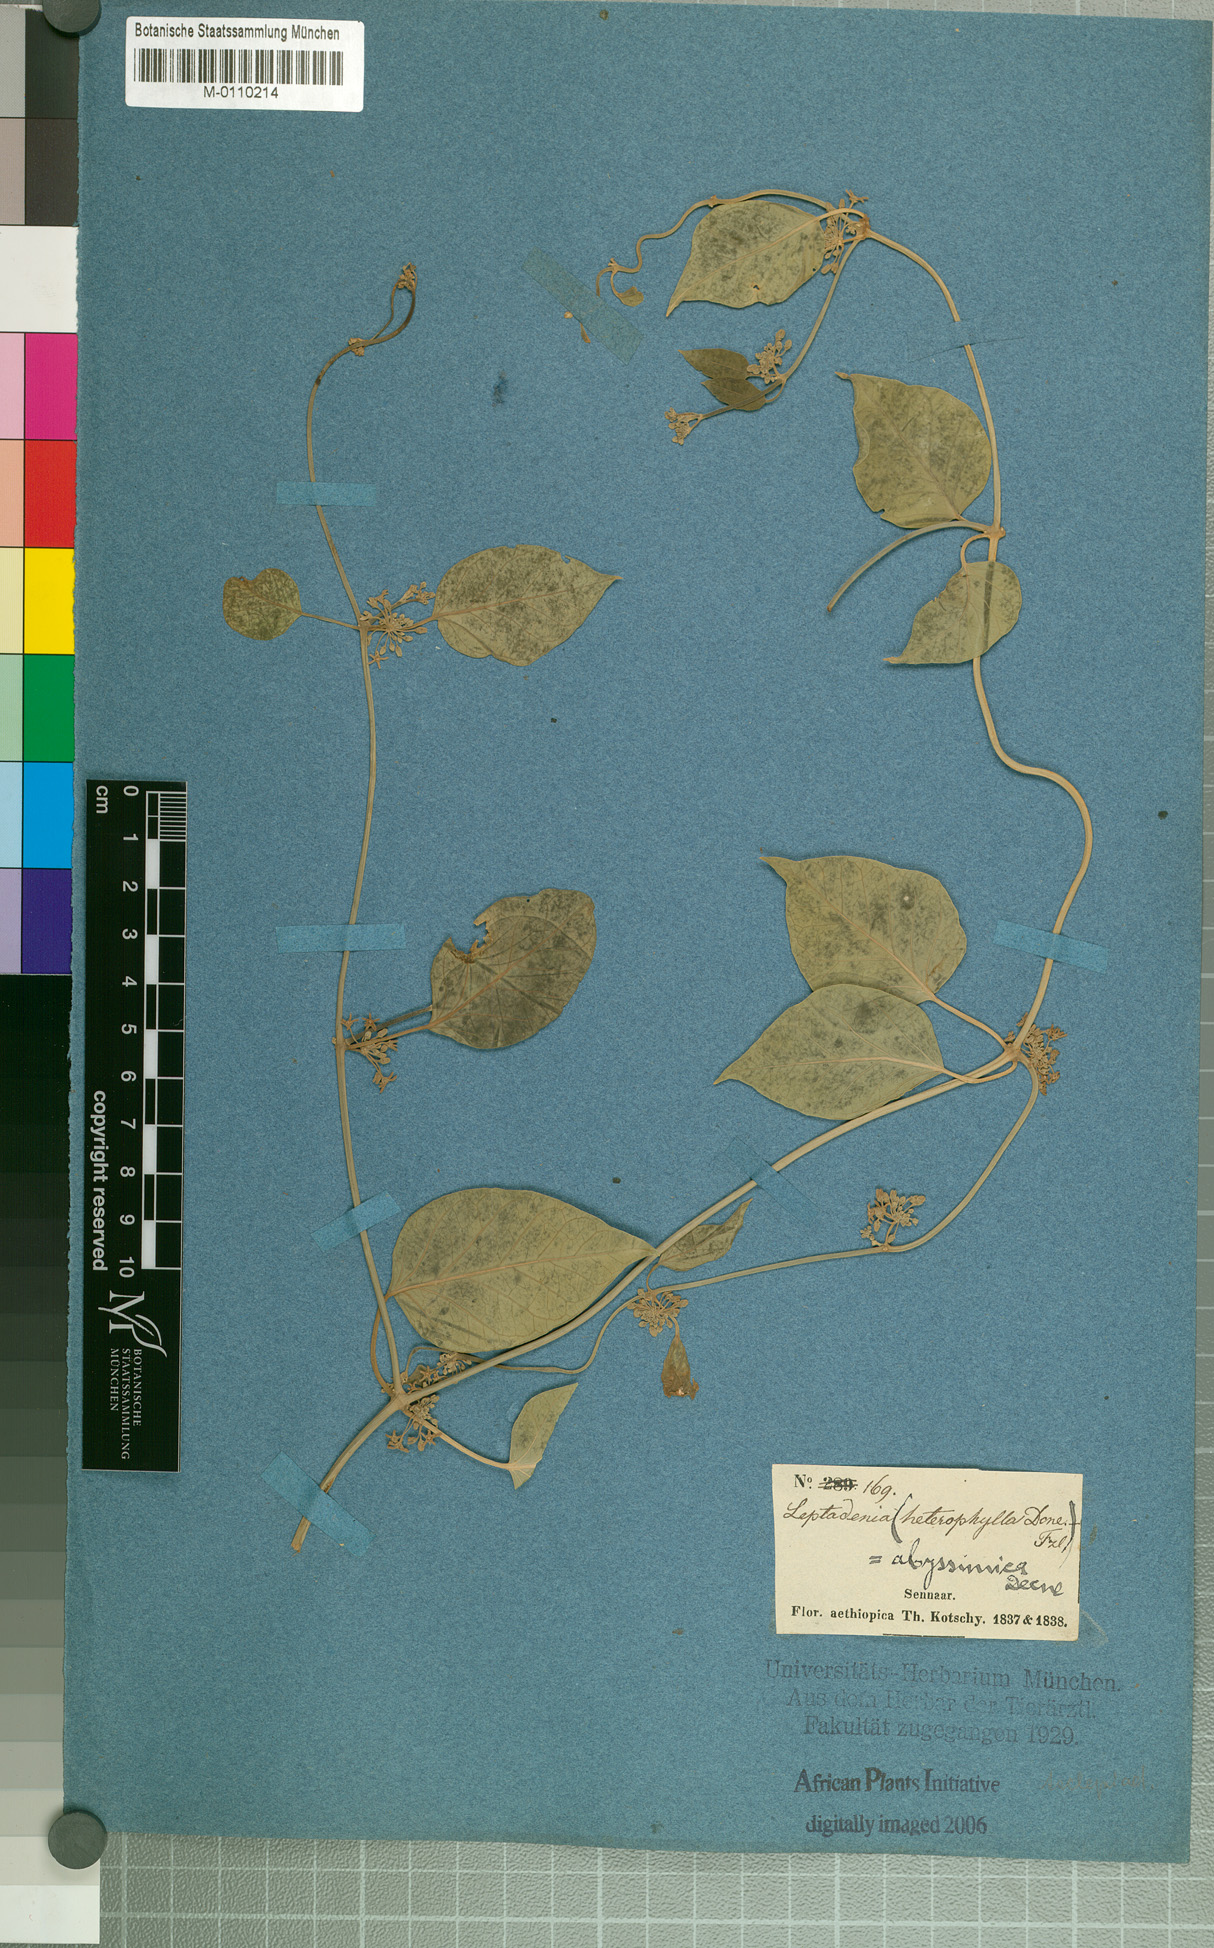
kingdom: Plantae
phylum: Tracheophyta
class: Magnoliopsida
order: Gentianales
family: Apocynaceae
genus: Leptadenia
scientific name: Leptadenia arborea
